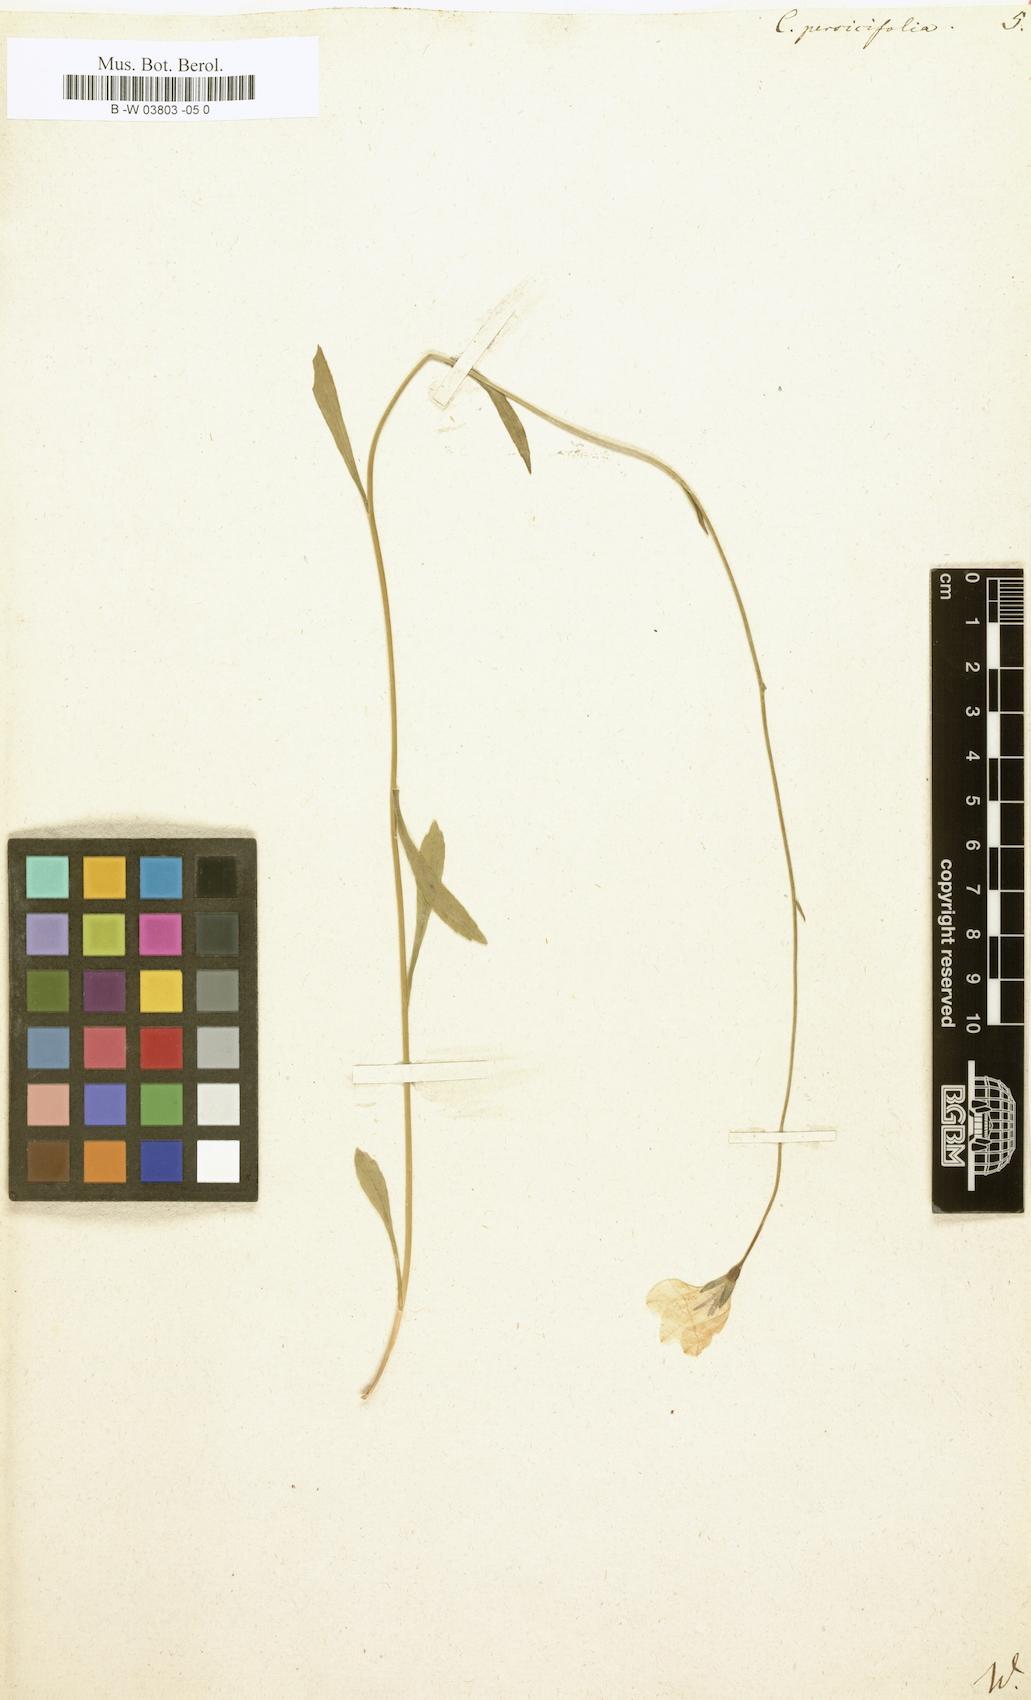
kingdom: Plantae
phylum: Tracheophyta
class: Magnoliopsida
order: Asterales
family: Campanulaceae
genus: Campanula
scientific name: Campanula persicifolia
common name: Peach-leaved bellflower
